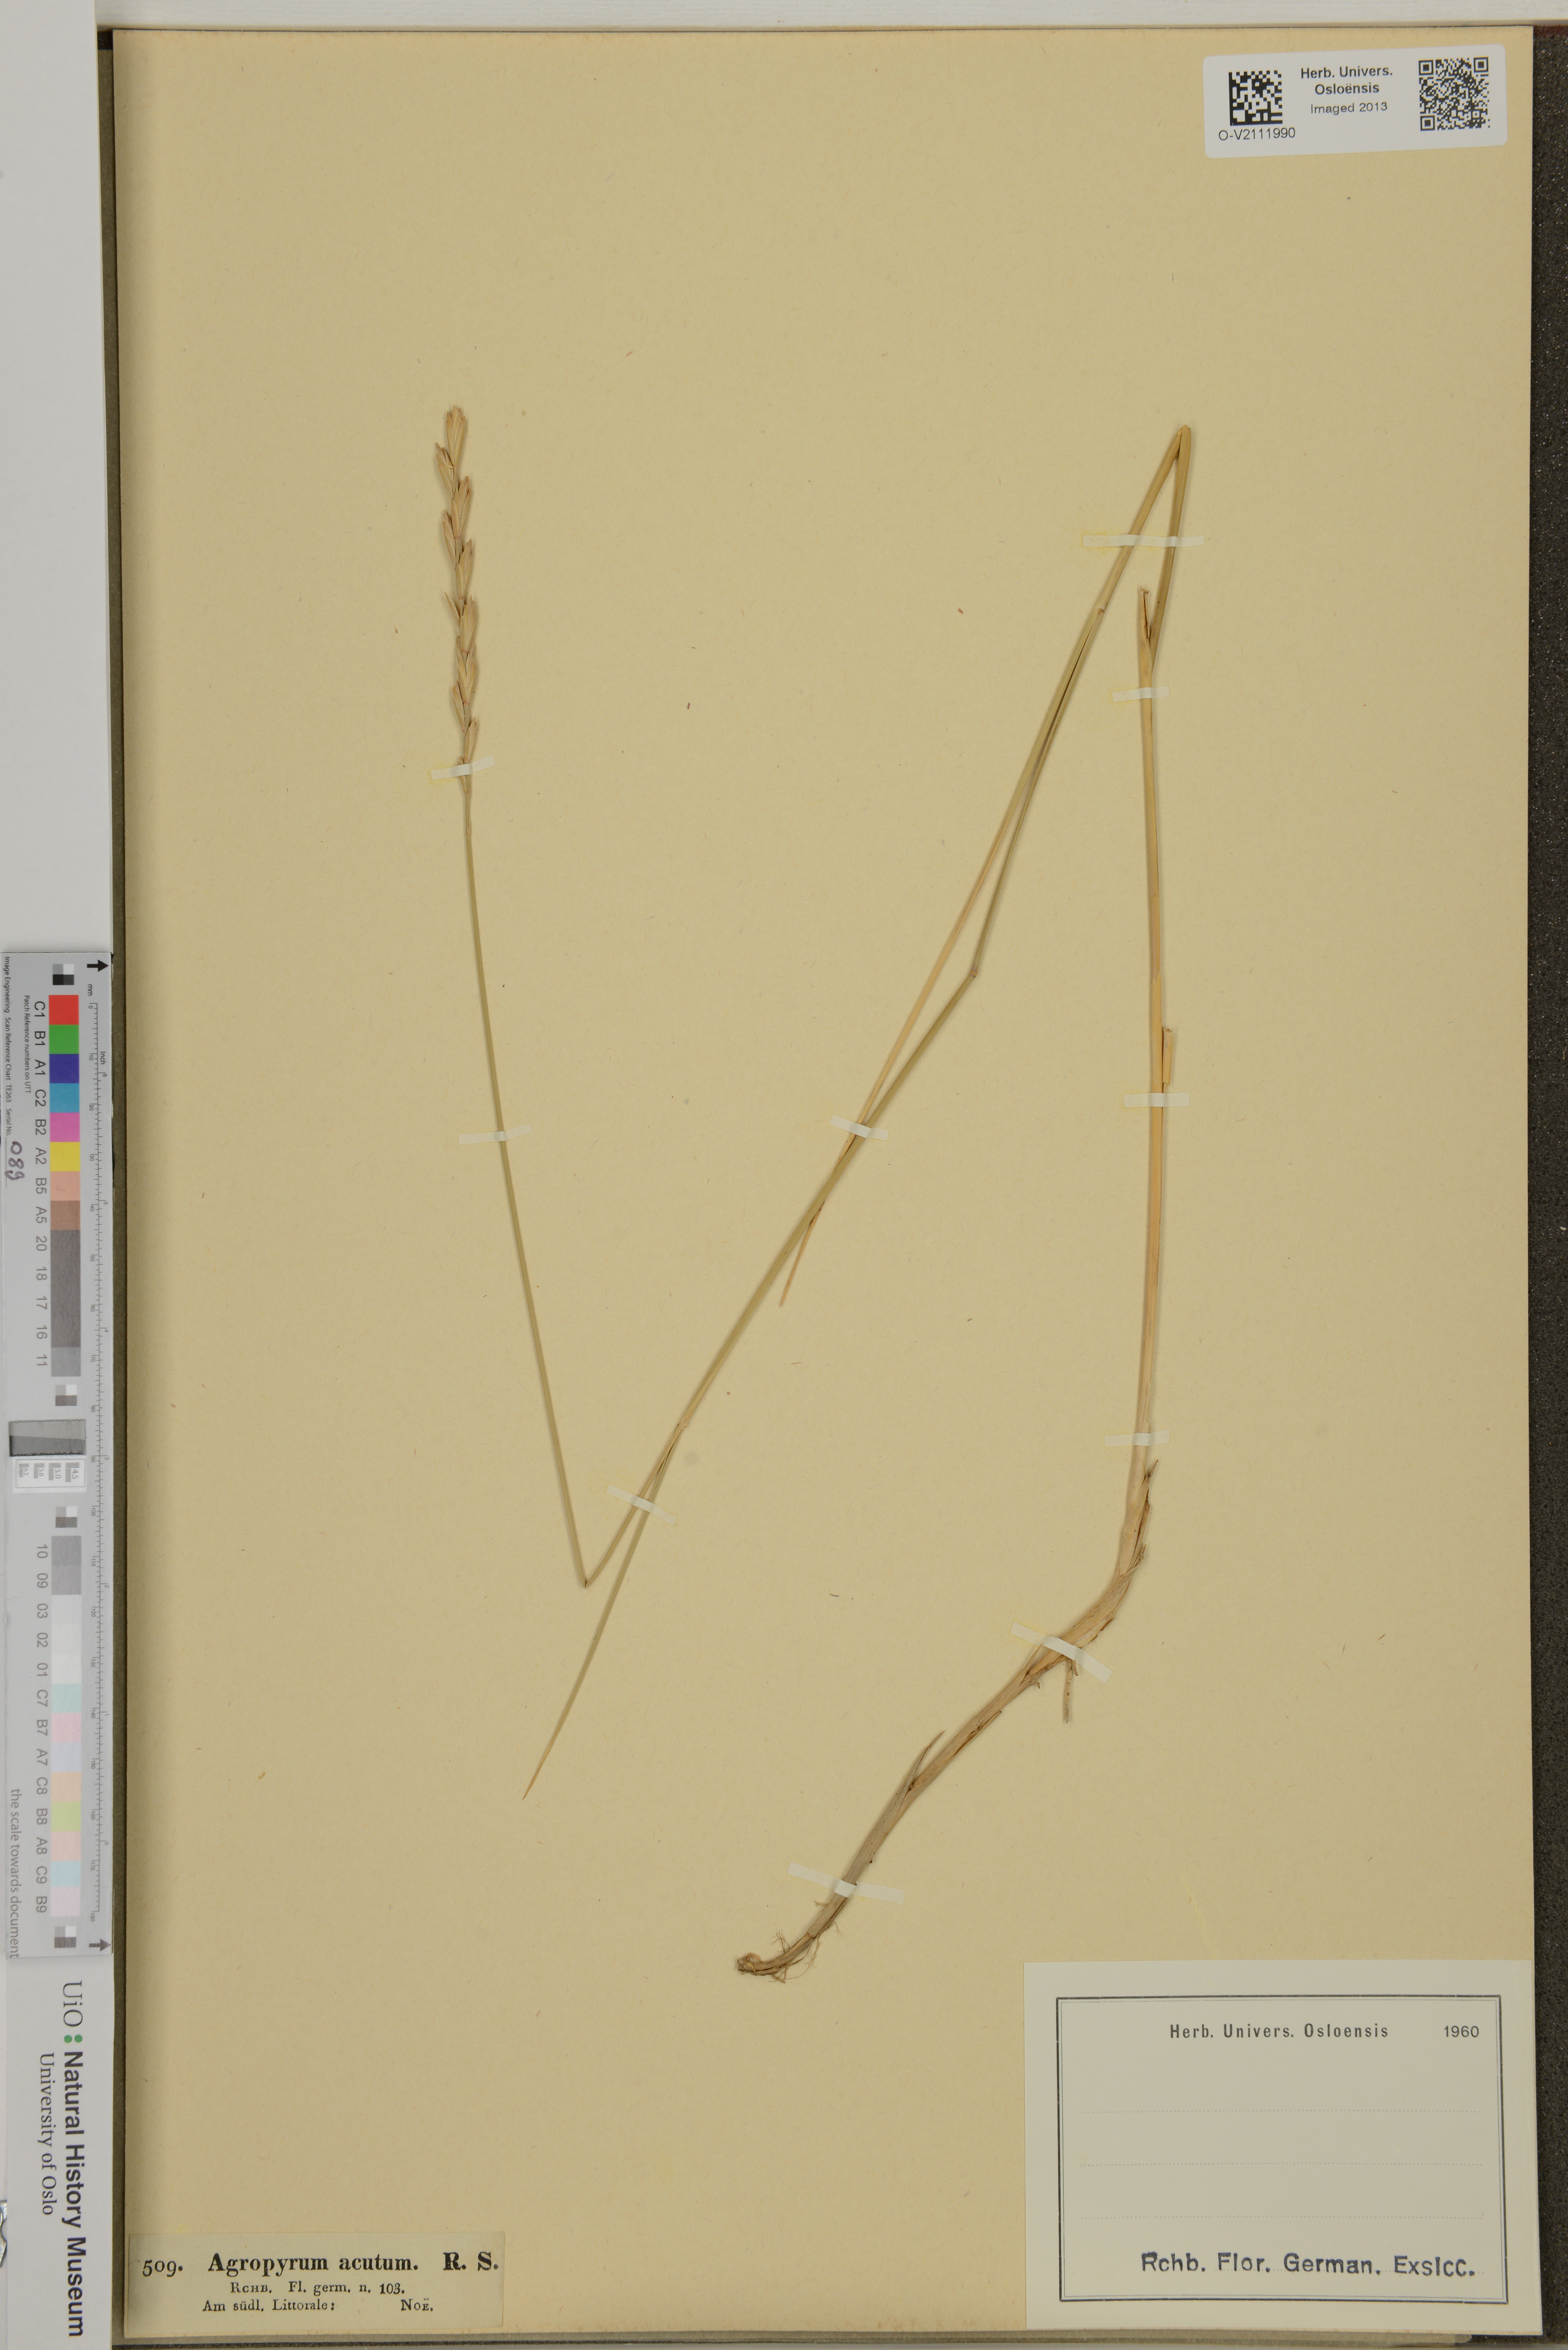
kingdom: Plantae
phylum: Tracheophyta
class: Liliopsida
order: Poales
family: Poaceae
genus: Agropyron
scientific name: Agropyron
